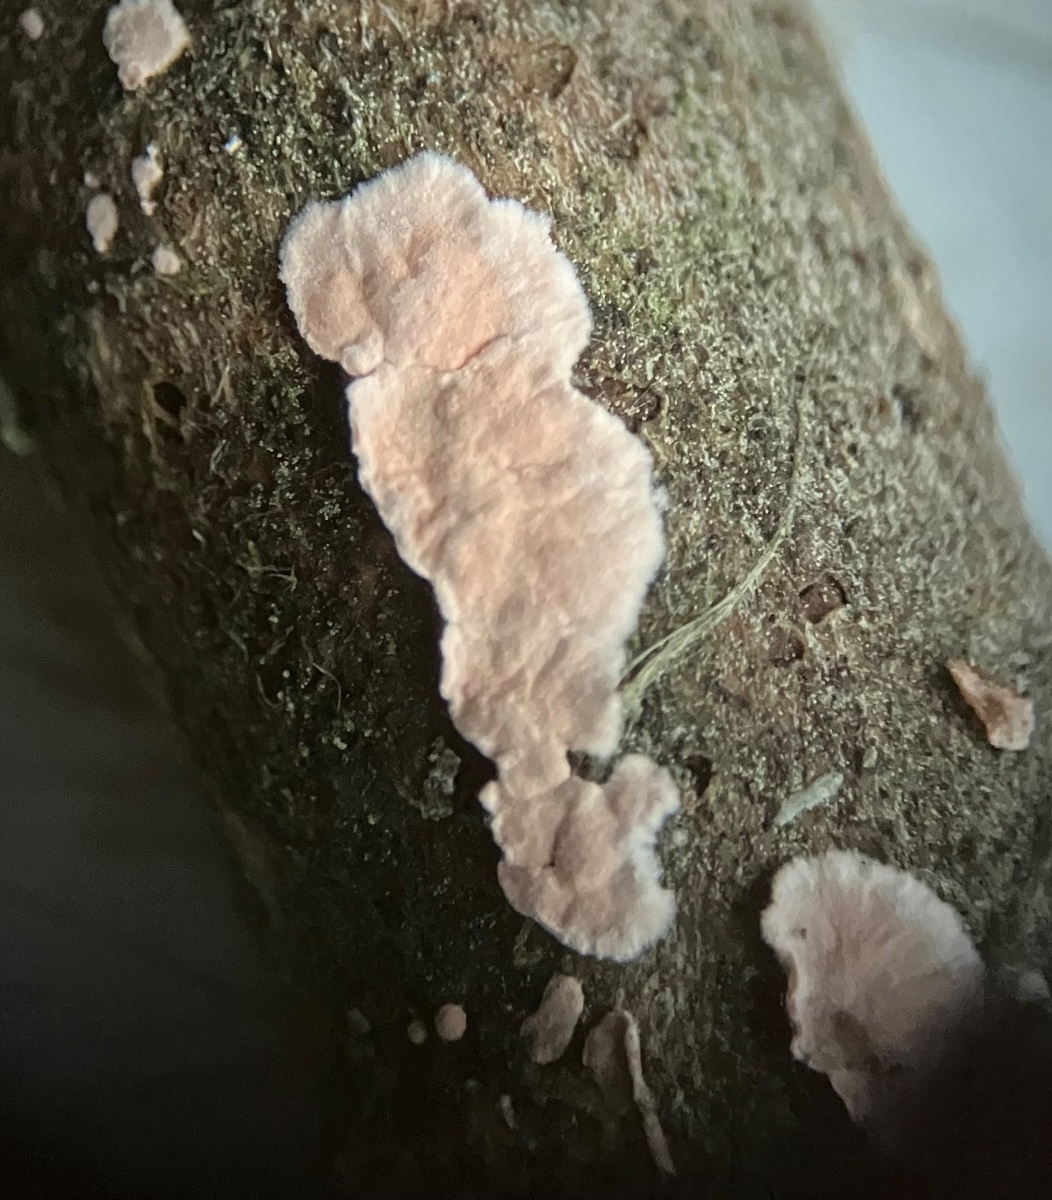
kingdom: Fungi
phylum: Basidiomycota
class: Agaricomycetes
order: Corticiales
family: Corticiaceae
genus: Corticium
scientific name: Corticium roseum
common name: rosa barkskind
